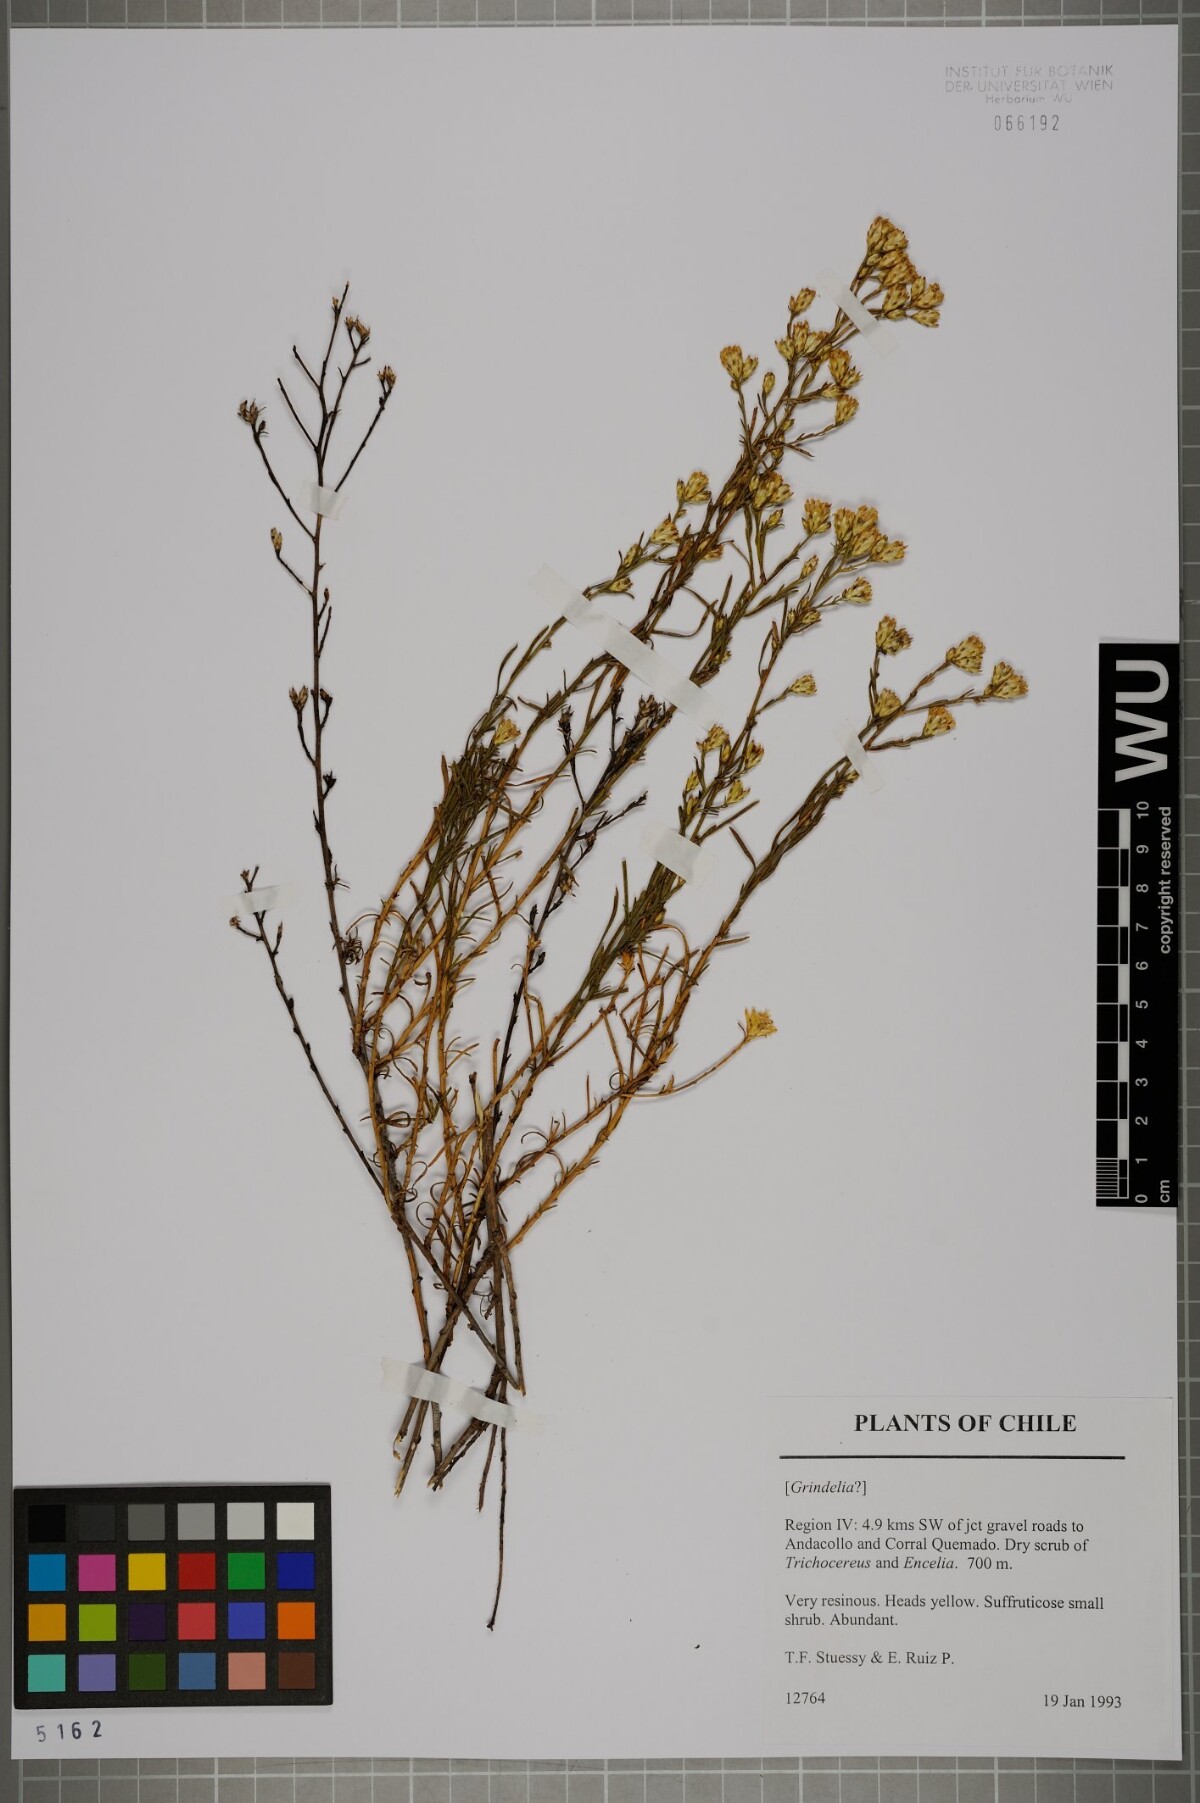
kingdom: Plantae
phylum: Tracheophyta
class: Magnoliopsida
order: Asterales
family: Asteraceae
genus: Gutierrezia
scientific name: Gutierrezia resinosa
